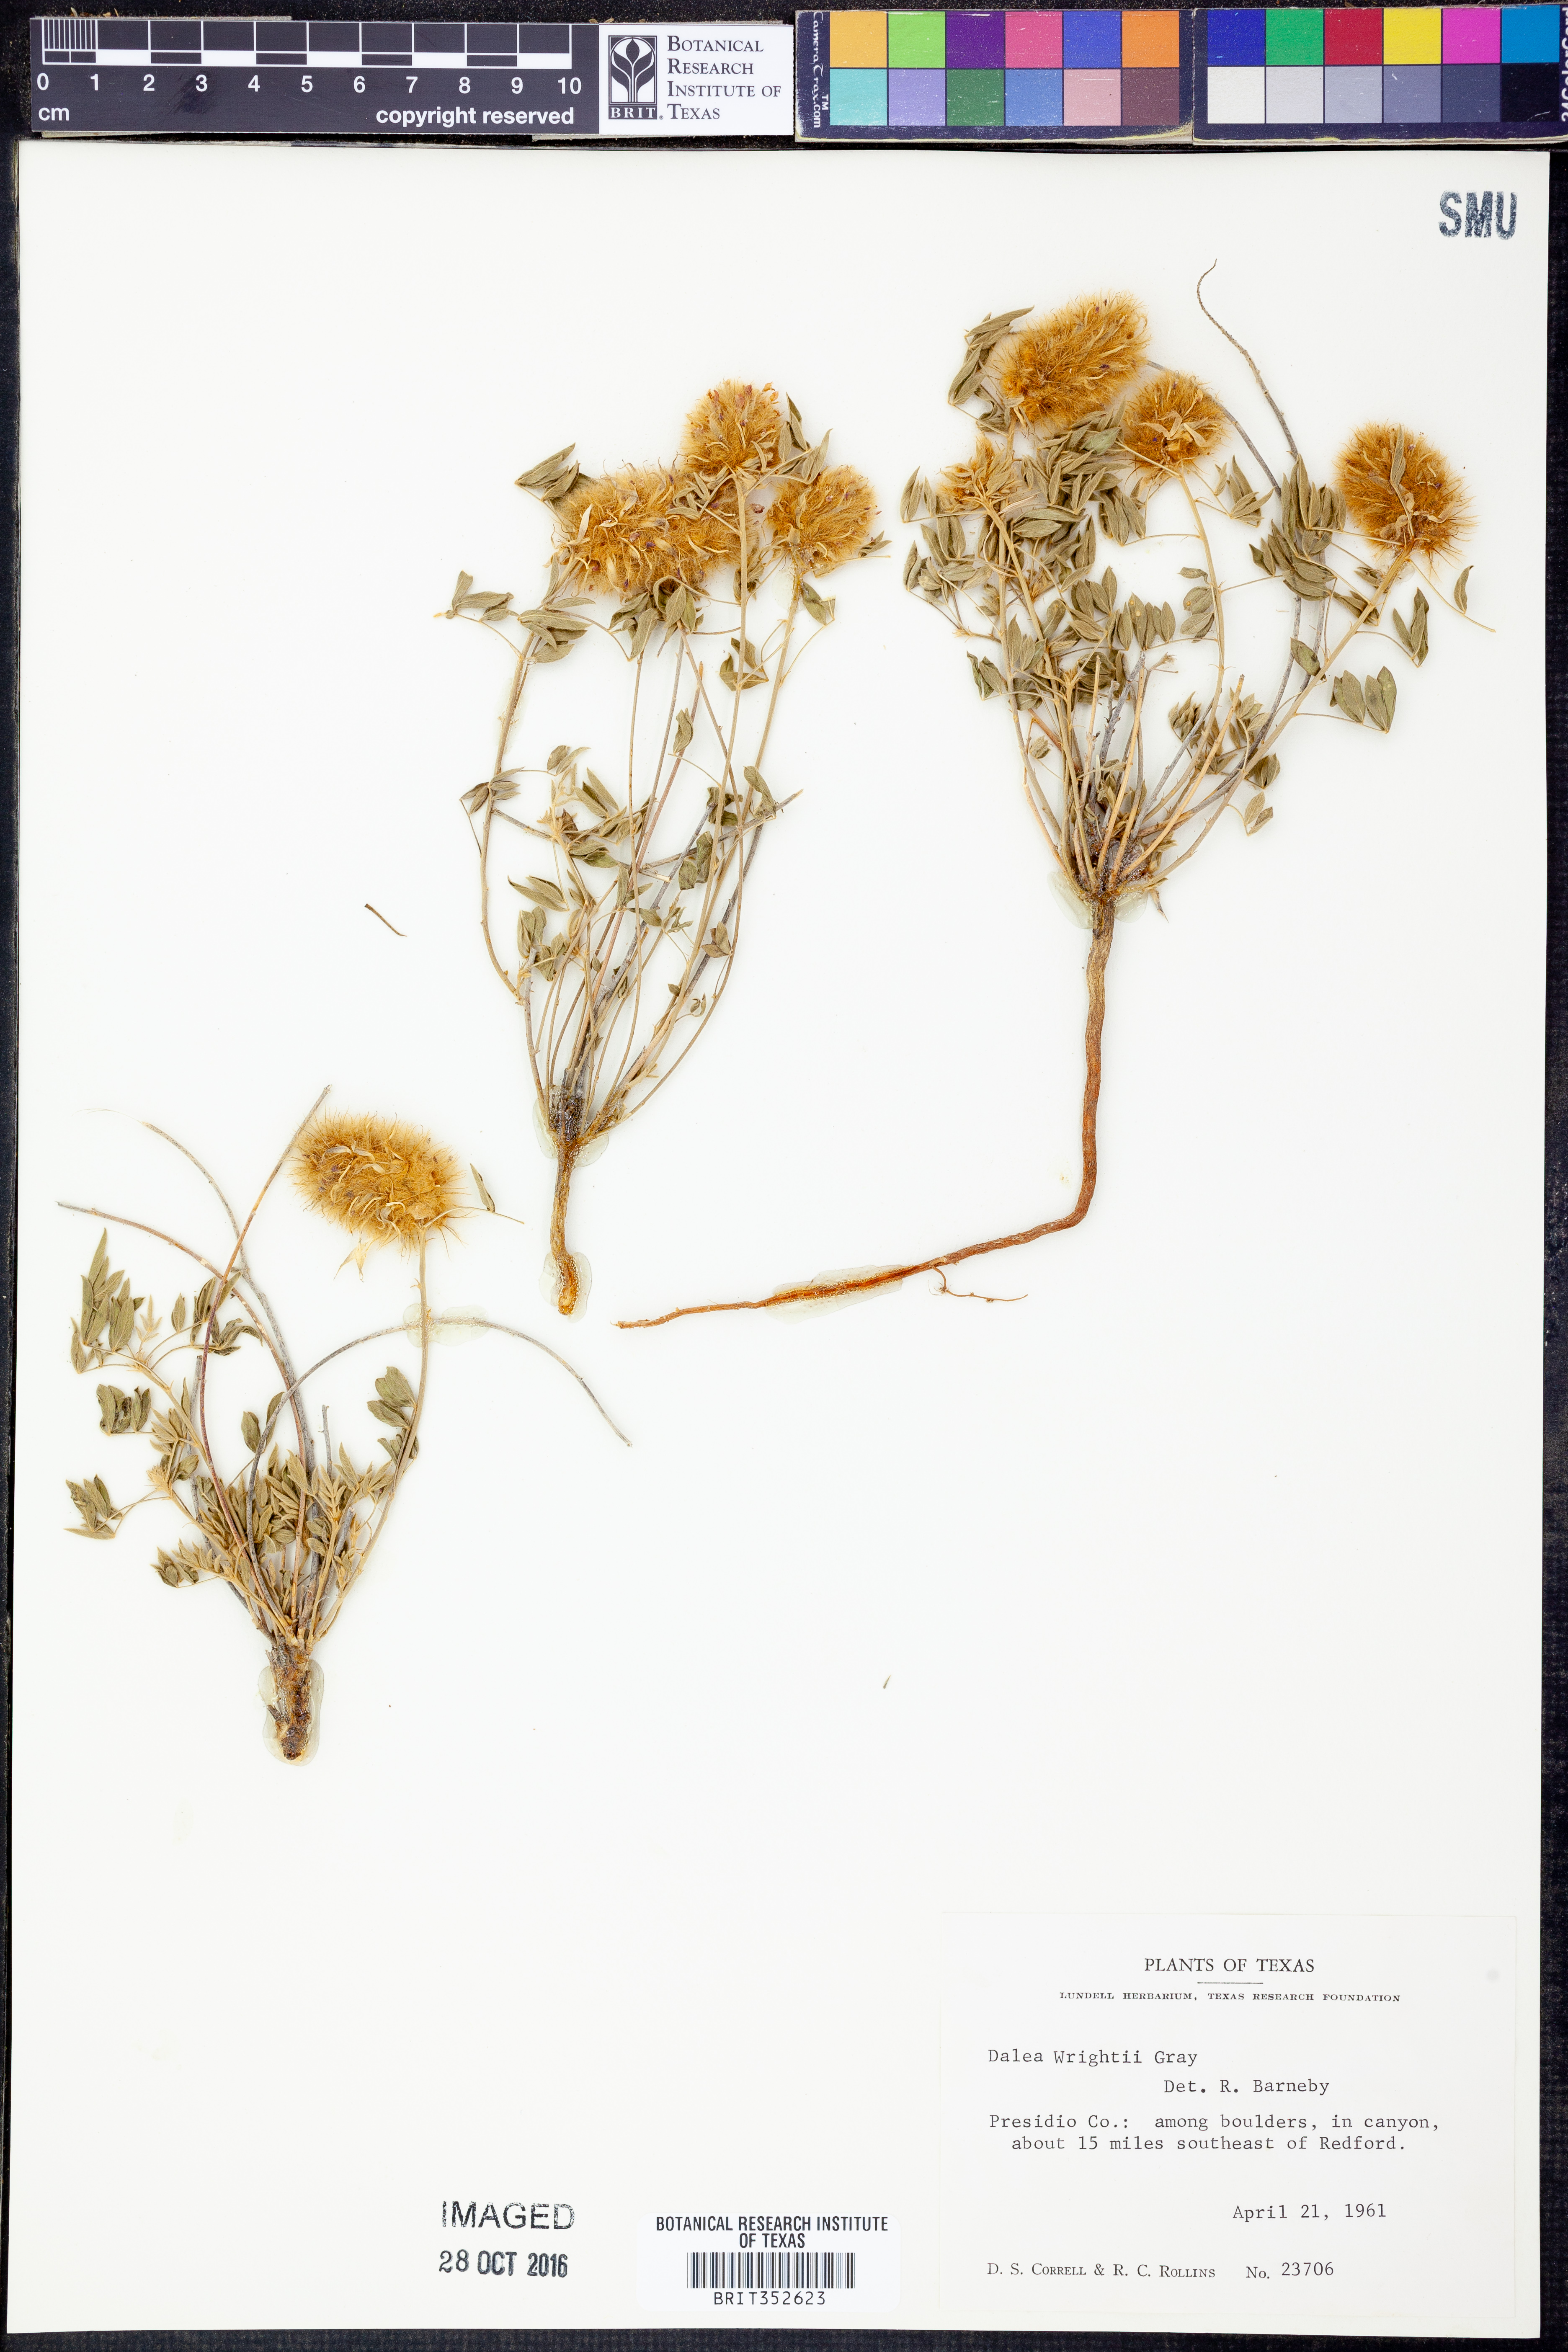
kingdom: Plantae
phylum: Tracheophyta
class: Magnoliopsida
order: Fabales
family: Fabaceae
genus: Dalea
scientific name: Dalea wrightii
